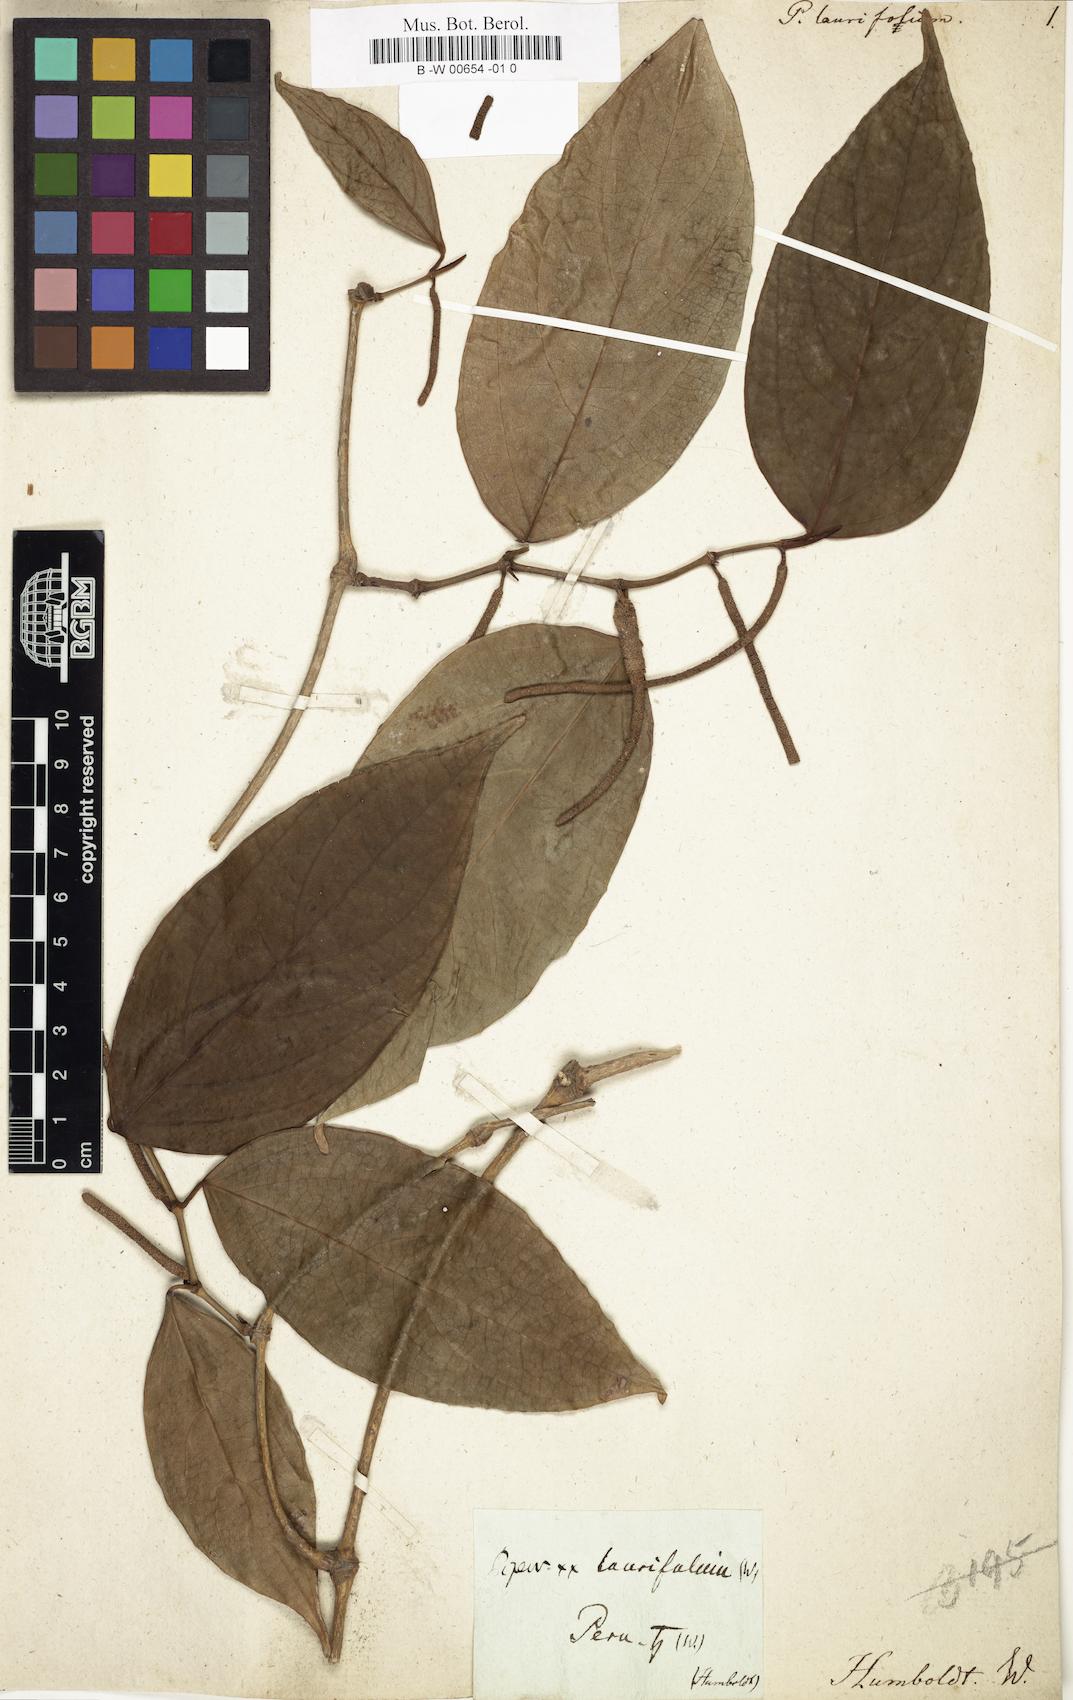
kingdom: Plantae
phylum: Tracheophyta
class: Magnoliopsida
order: Piperales
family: Piperaceae
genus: Piper
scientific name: Piper laurifolium
